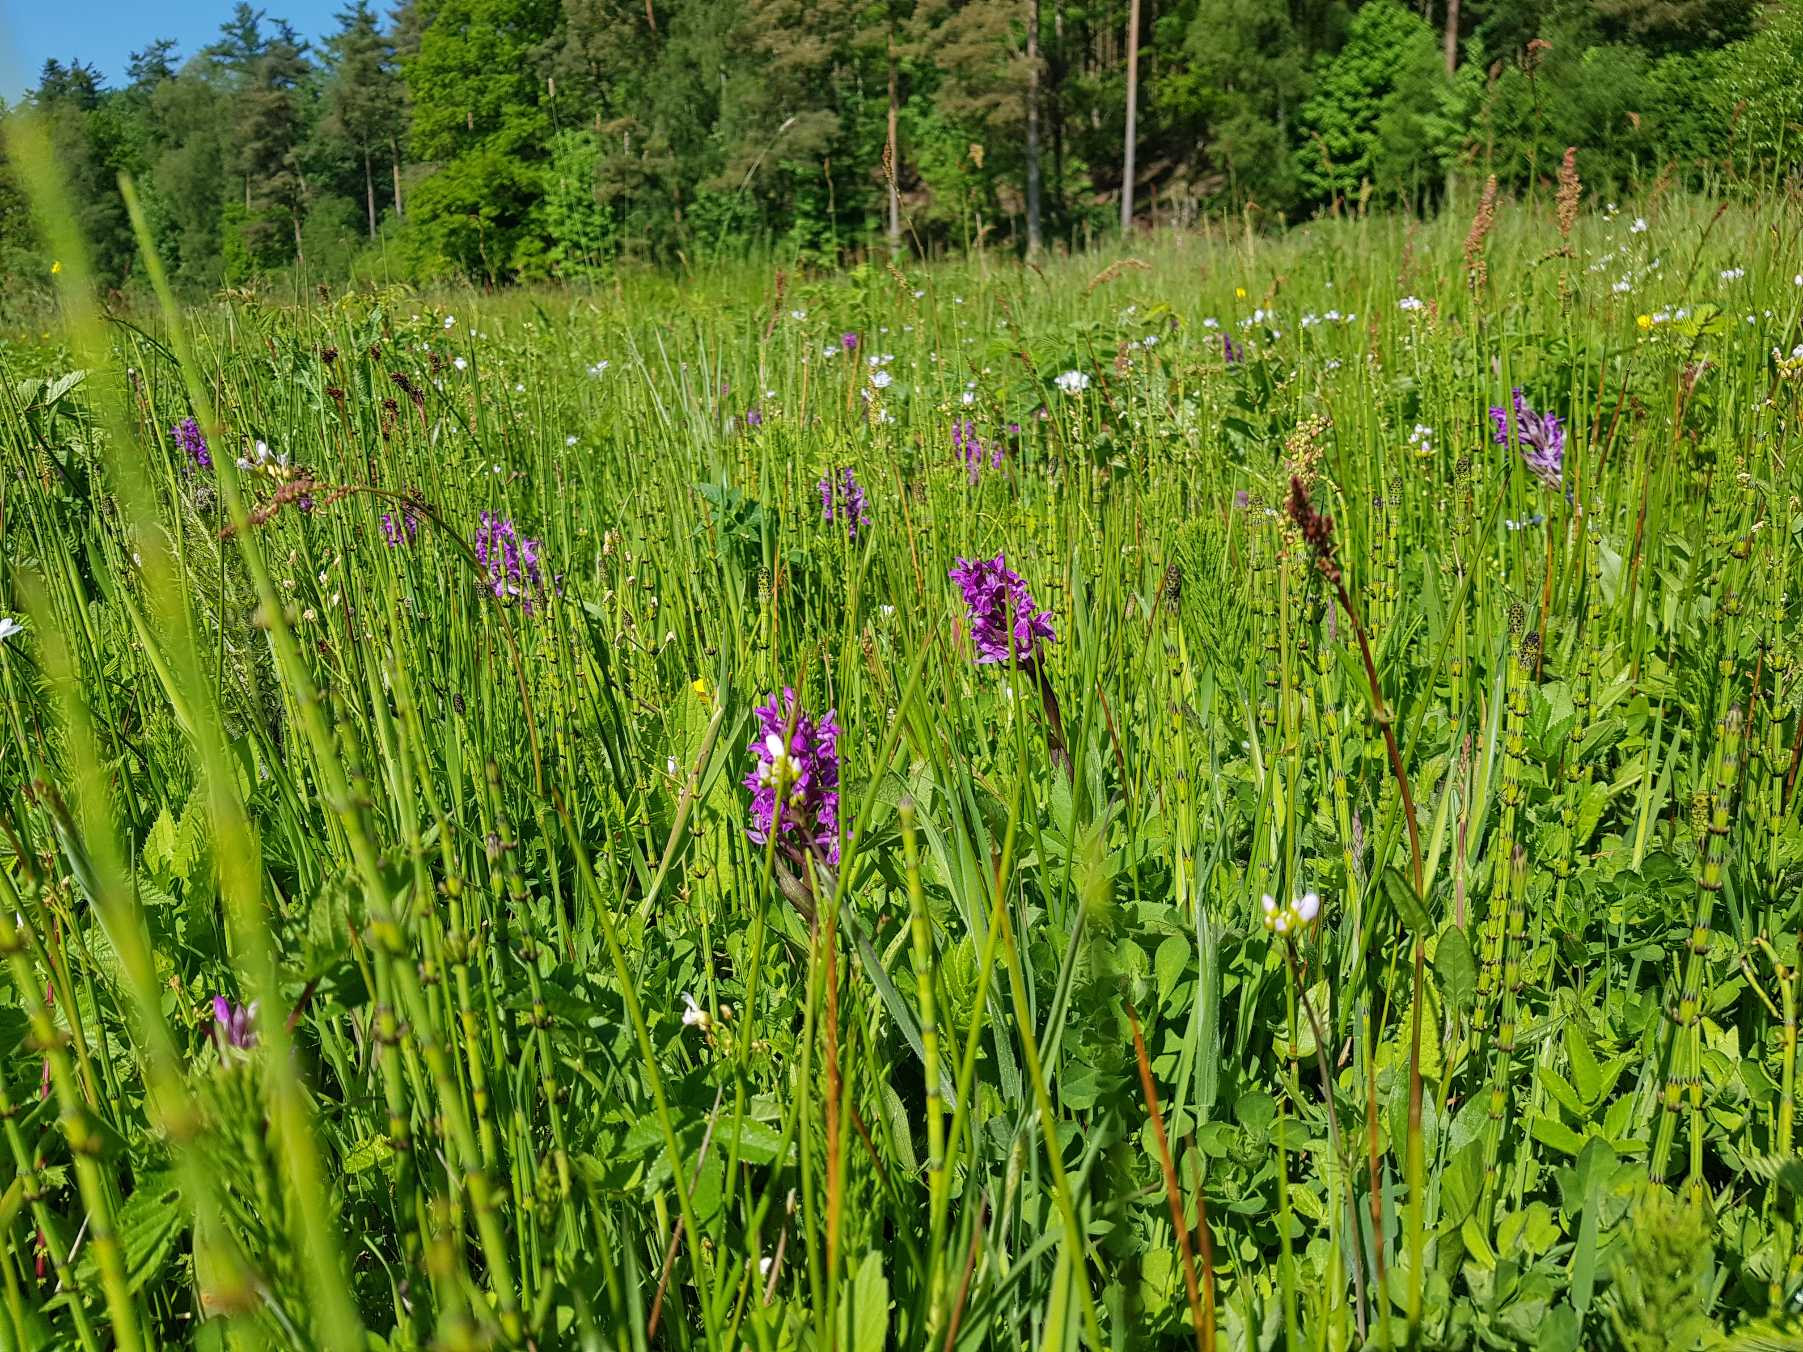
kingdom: Plantae
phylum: Tracheophyta
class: Liliopsida
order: Asparagales
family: Orchidaceae
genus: Dactylorhiza
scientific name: Dactylorhiza majalis
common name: Maj-gøgeurt
